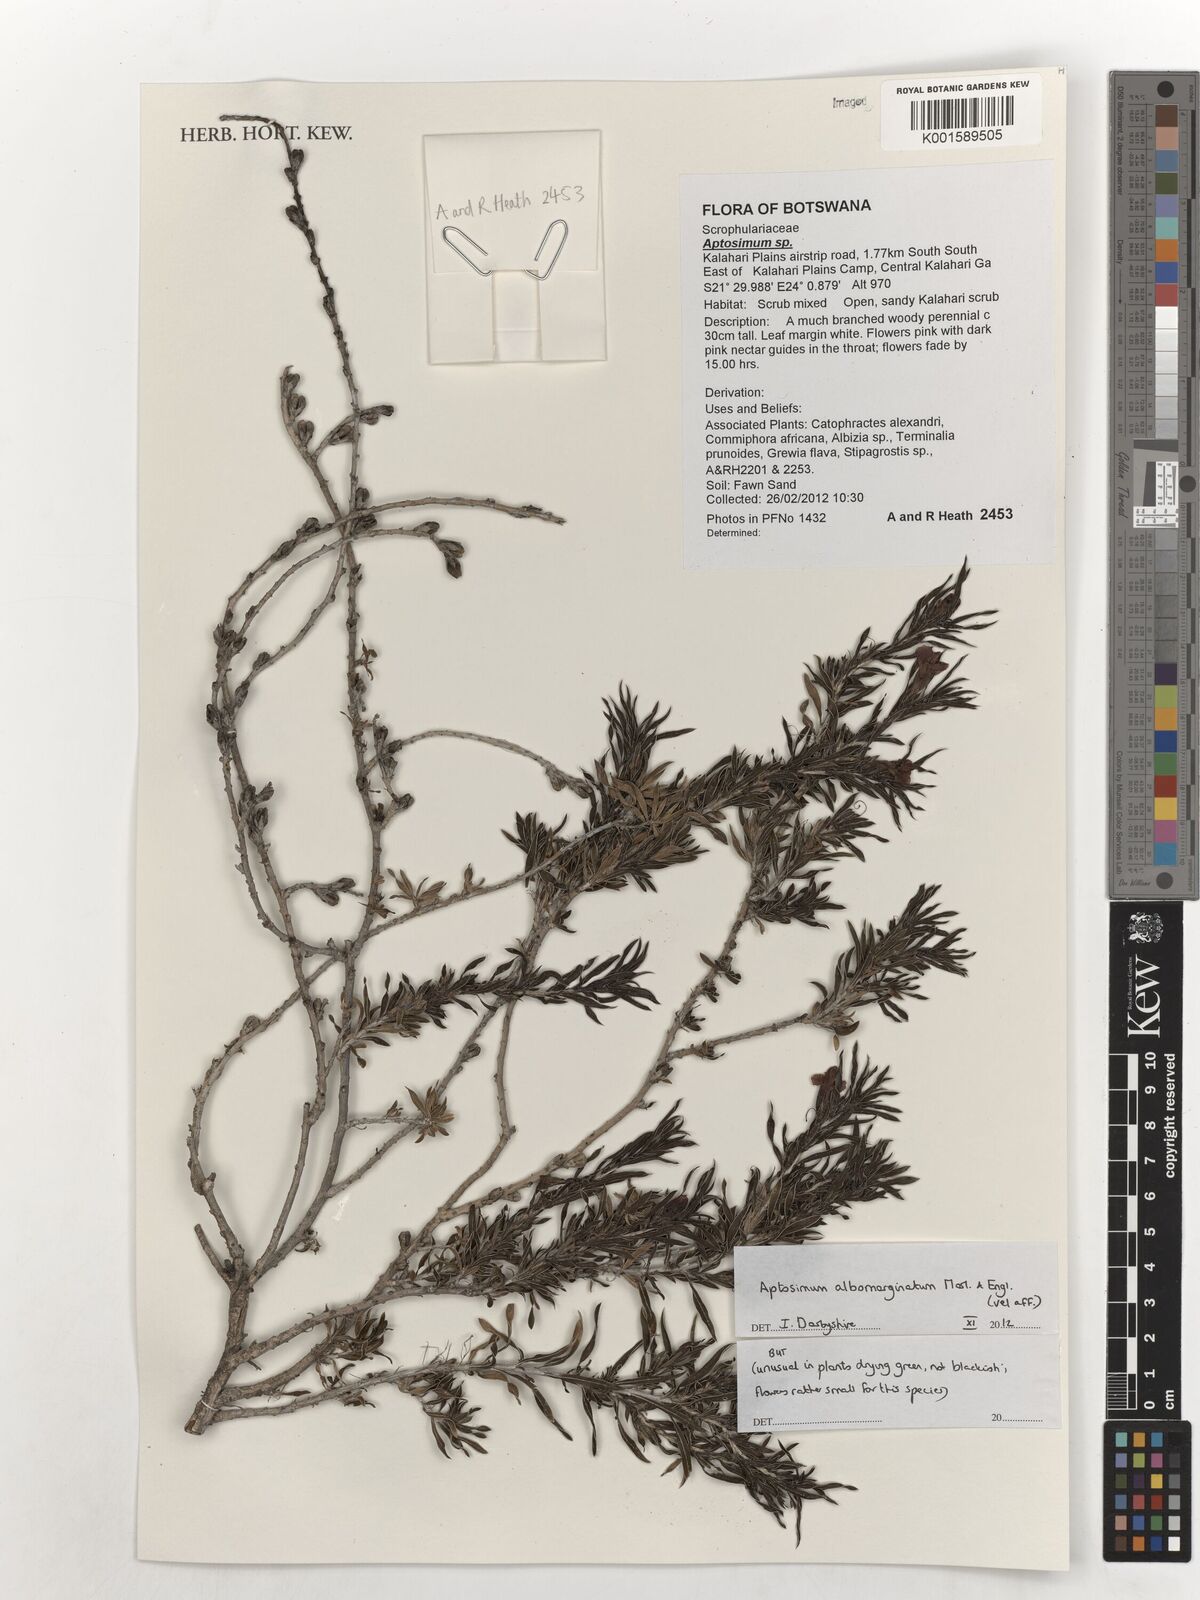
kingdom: Plantae
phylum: Tracheophyta
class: Magnoliopsida
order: Lamiales
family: Scrophulariaceae
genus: Aptosimum
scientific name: Aptosimum albomarginatum
